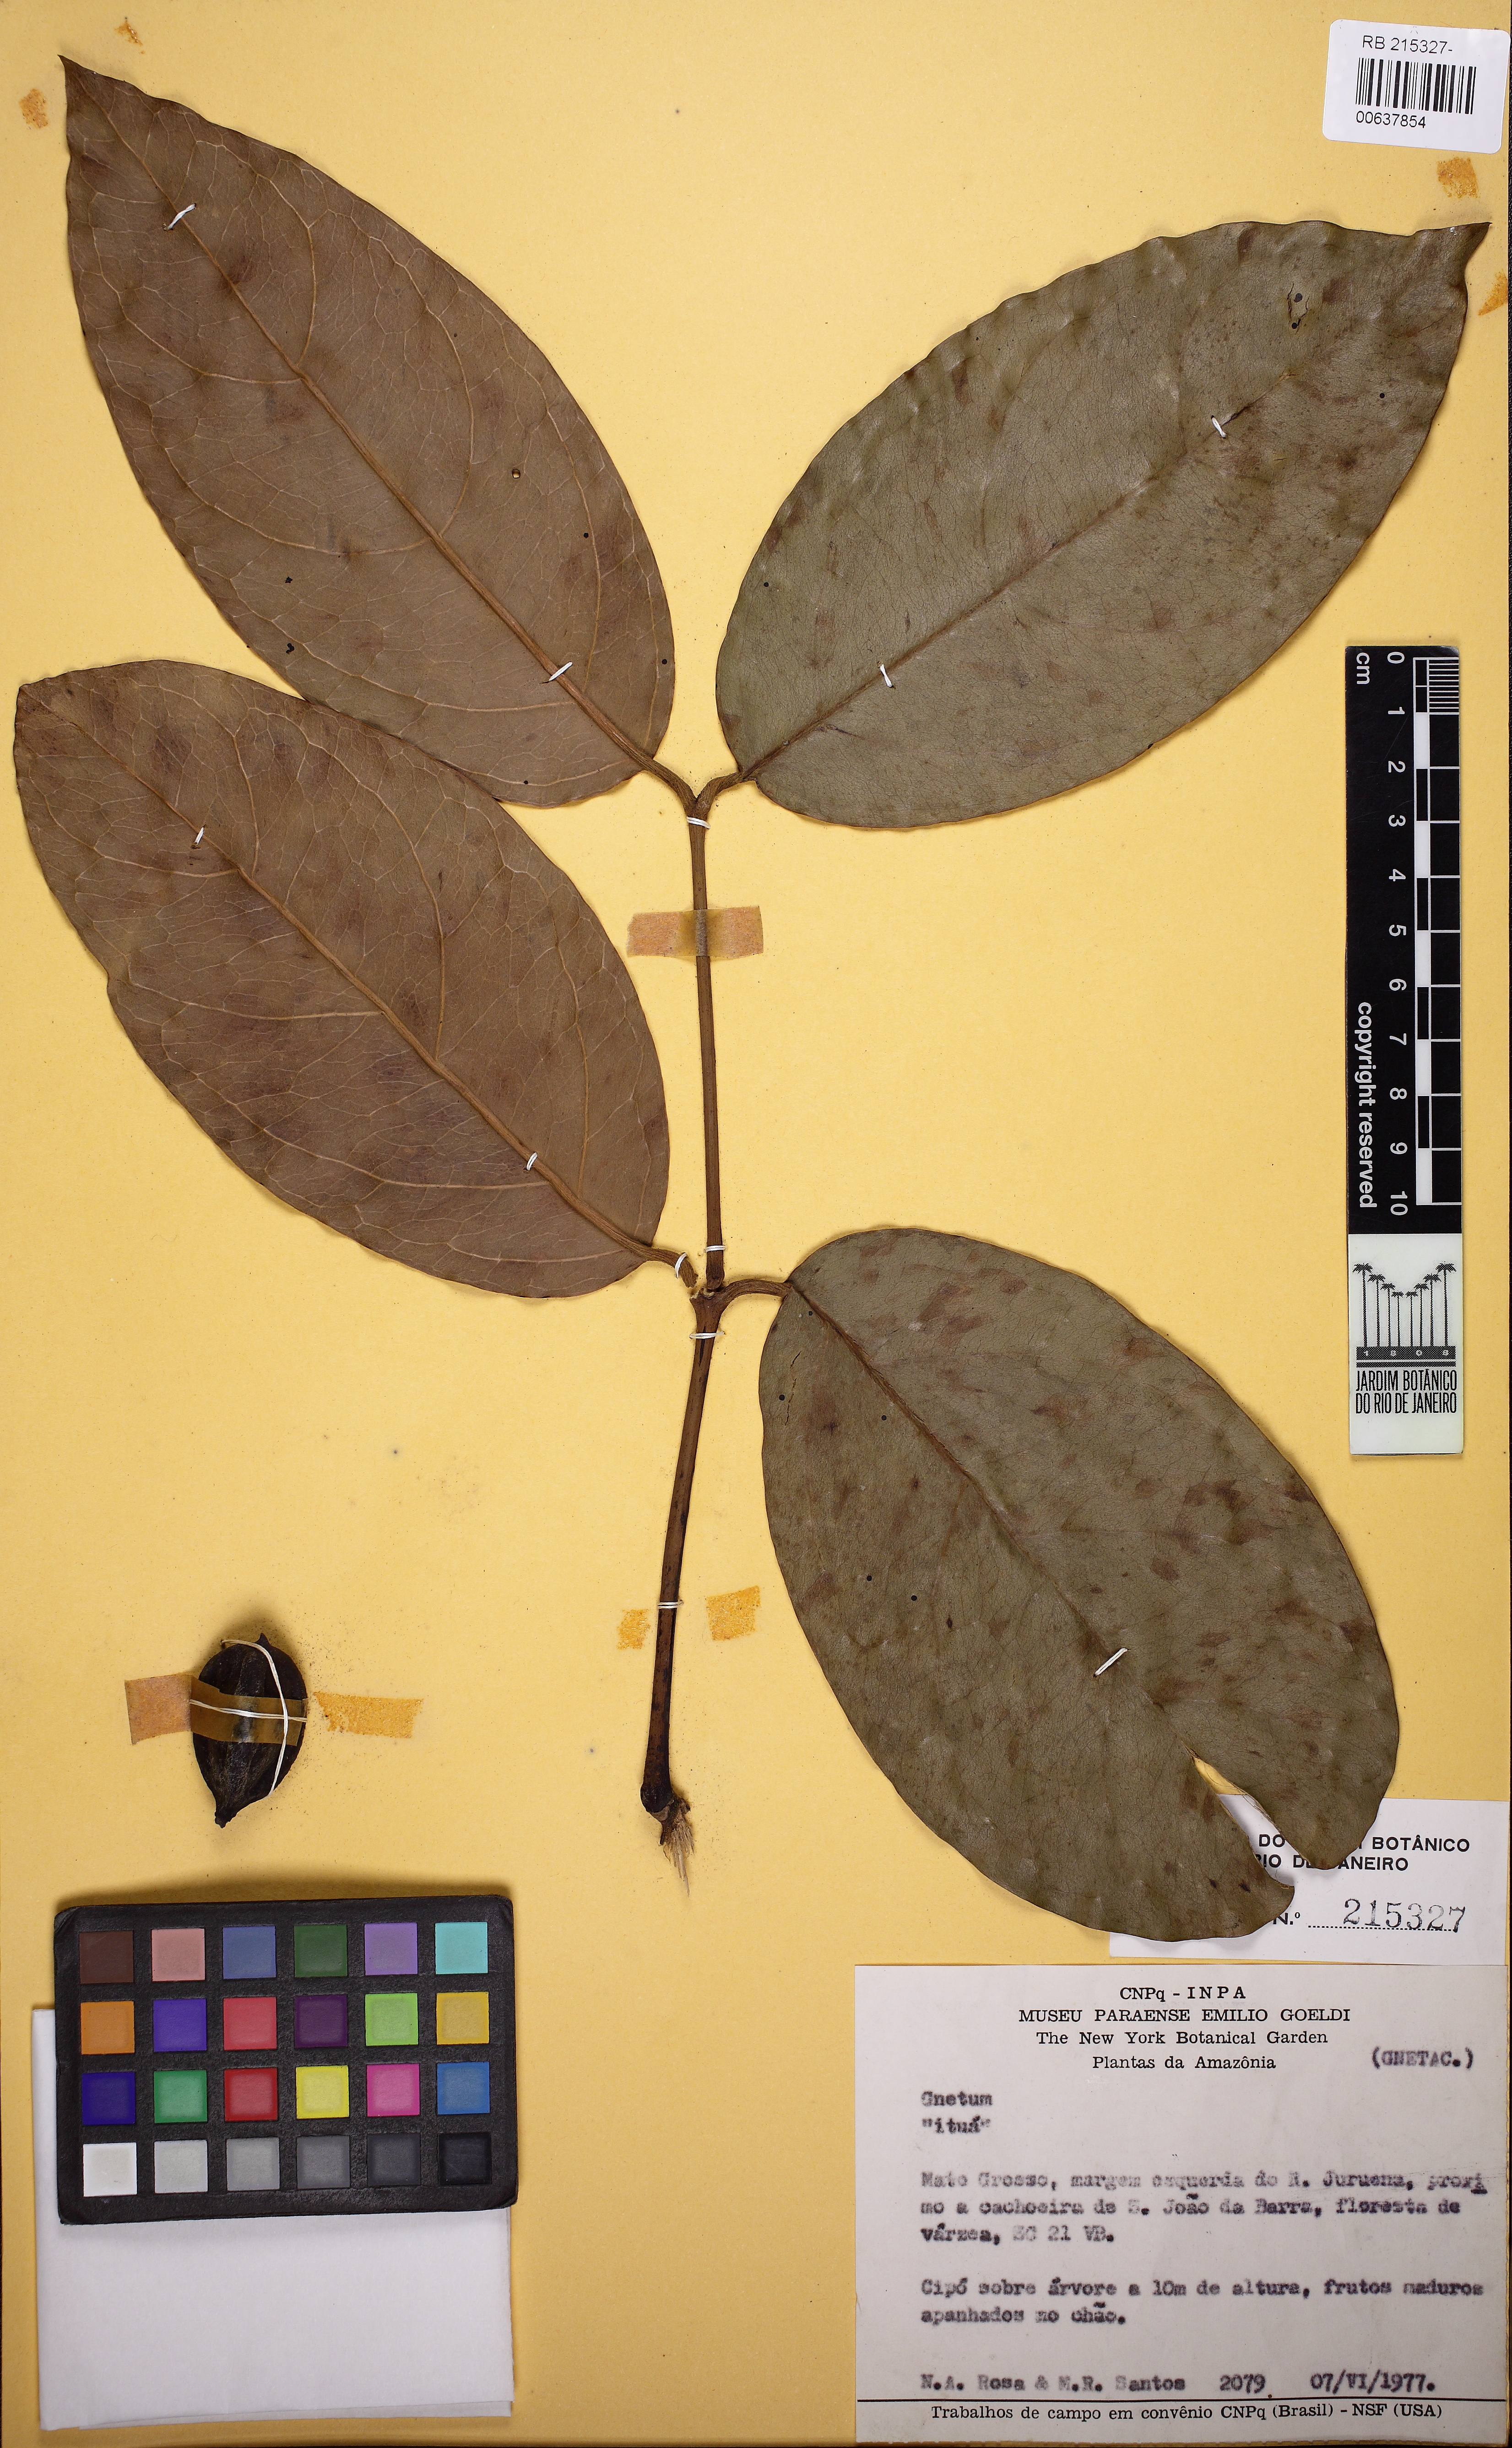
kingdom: Plantae
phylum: Tracheophyta
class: Gnetopsida
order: Gnetales
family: Gnetaceae
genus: Gnetum
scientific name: Gnetum
